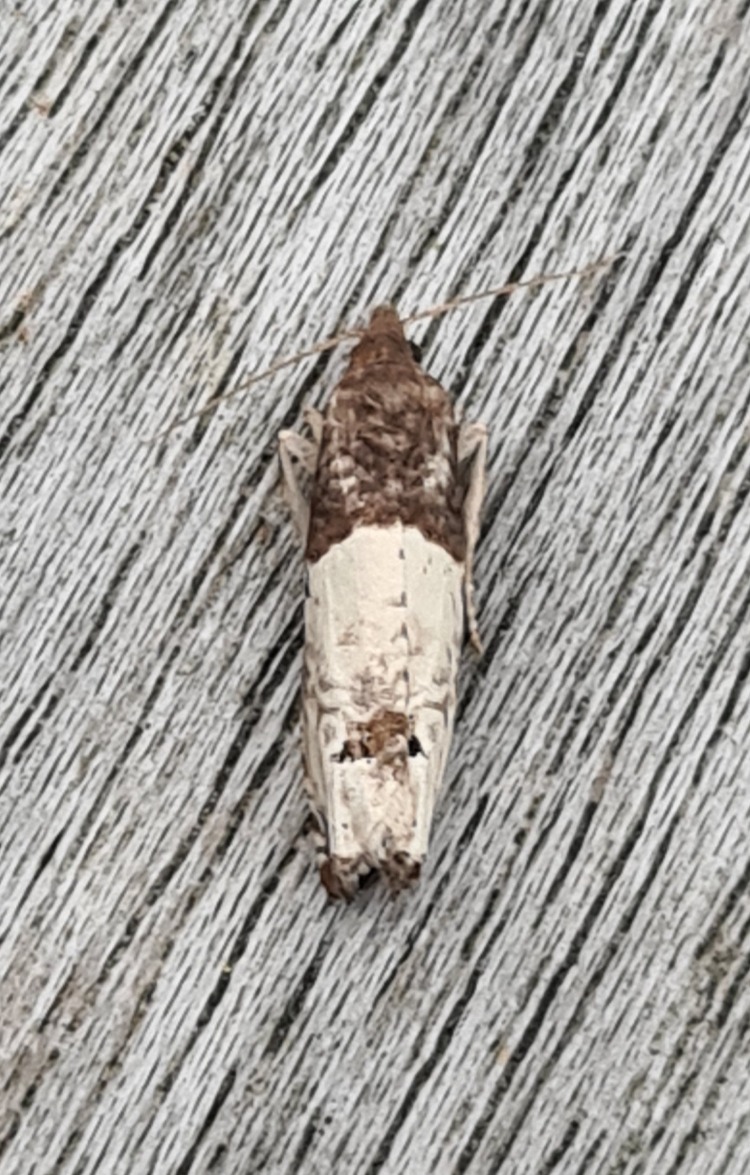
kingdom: Animalia
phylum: Arthropoda
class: Insecta
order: Lepidoptera
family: Tortricidae
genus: Epiblema
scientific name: Epiblema aquana
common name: Grå rosenvikler
